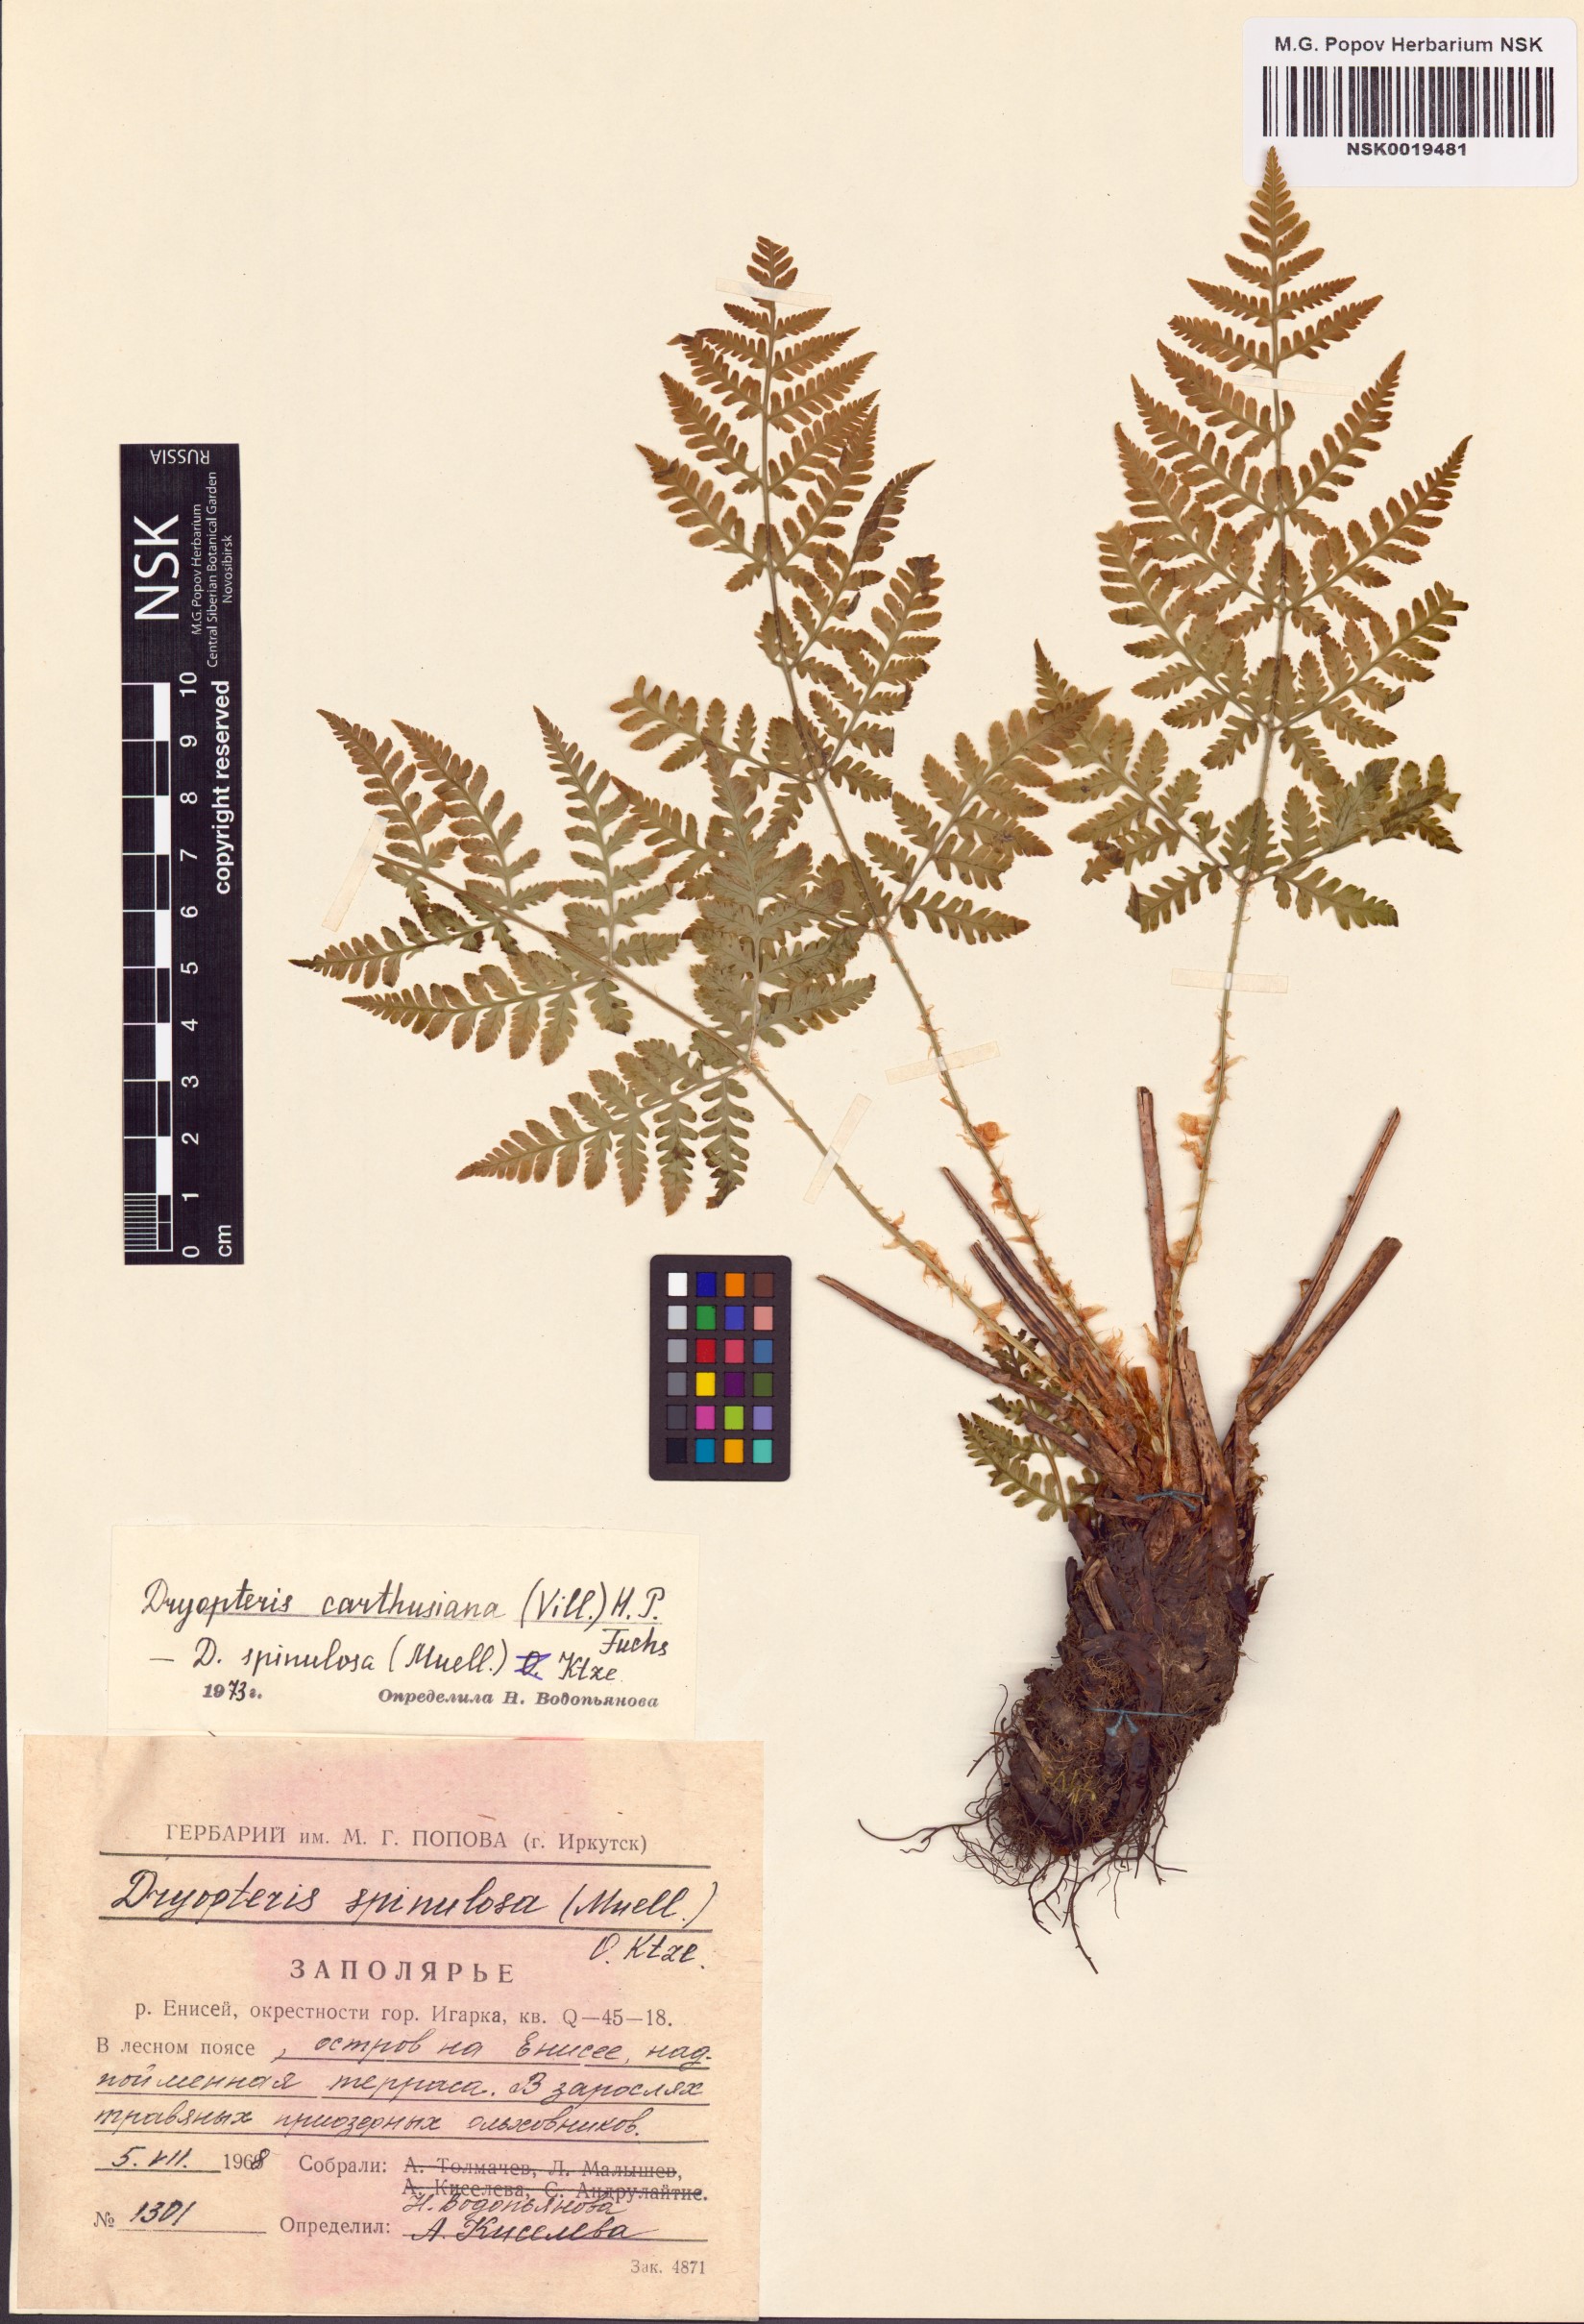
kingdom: Plantae
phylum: Tracheophyta
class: Polypodiopsida
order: Polypodiales
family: Dryopteridaceae
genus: Dryopteris
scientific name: Dryopteris carthusiana
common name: Narrow buckler-fern
